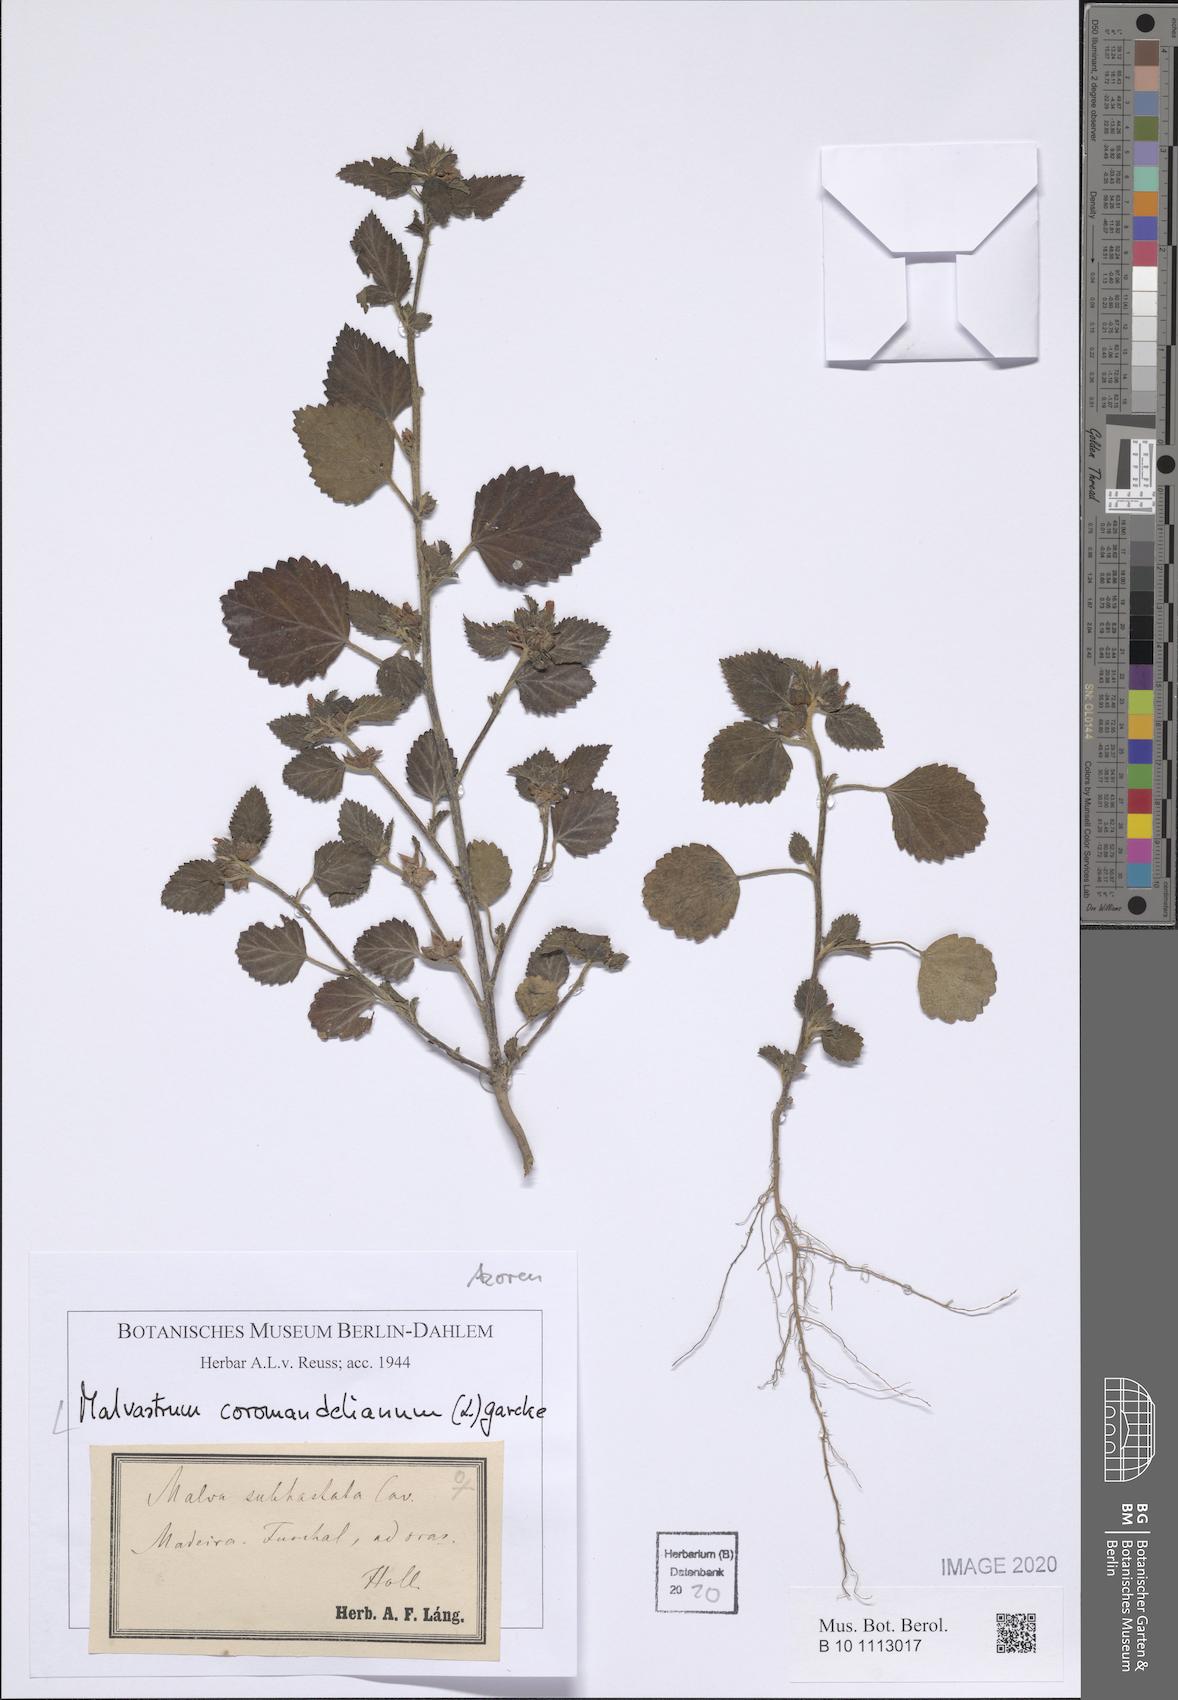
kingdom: Plantae
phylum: Tracheophyta
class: Magnoliopsida
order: Malvales
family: Malvaceae
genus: Malvastrum
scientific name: Malvastrum coromandelianum
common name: Threelobe false mallow
